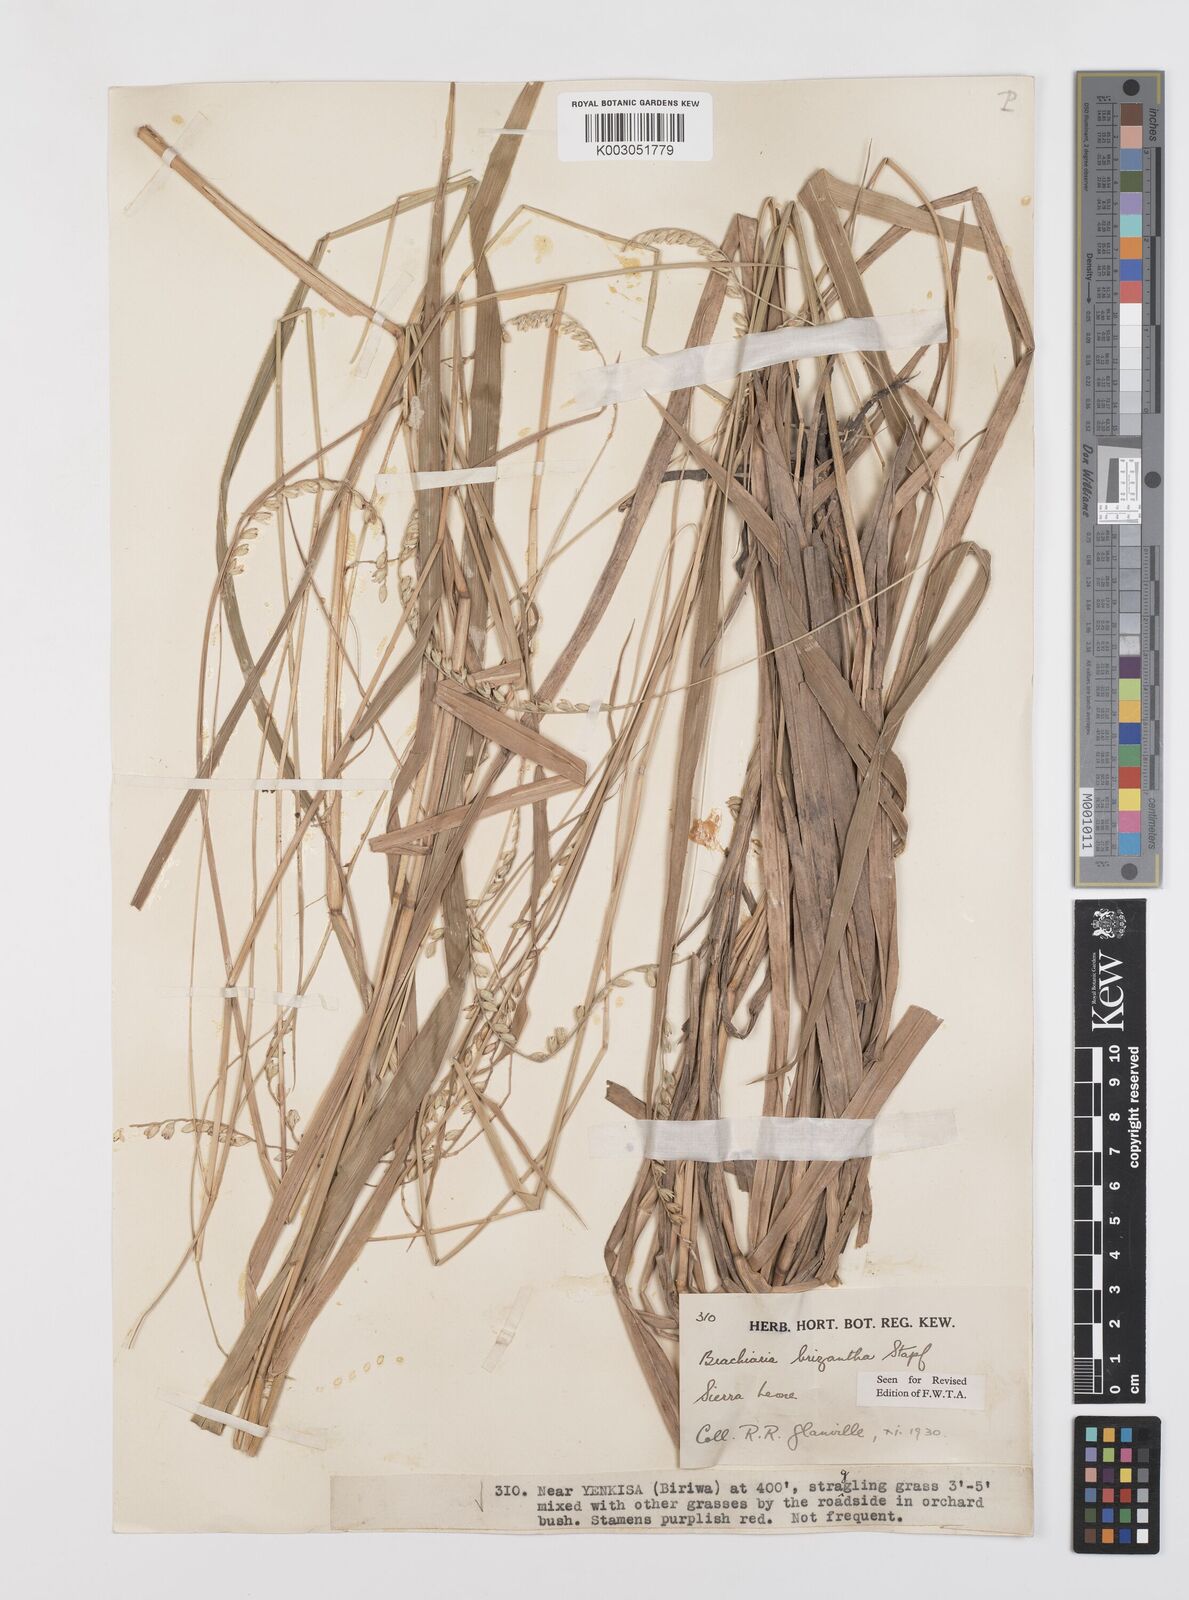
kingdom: Plantae
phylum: Tracheophyta
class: Liliopsida
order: Poales
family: Poaceae
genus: Urochloa
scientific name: Urochloa brizantha
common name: Palisade signalgrass
